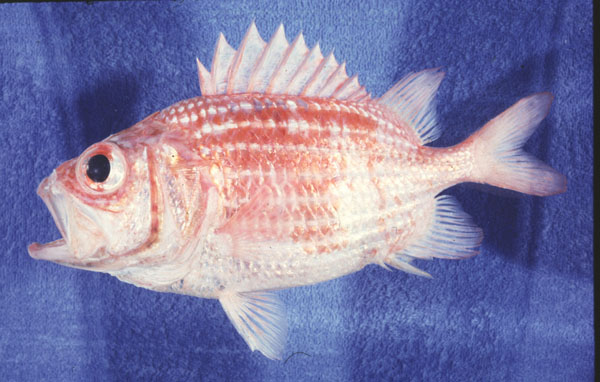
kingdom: Animalia
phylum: Chordata
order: Beryciformes
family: Holocentridae
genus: Ostichthys
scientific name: Ostichthys kaianus
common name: Deepwater soldier
